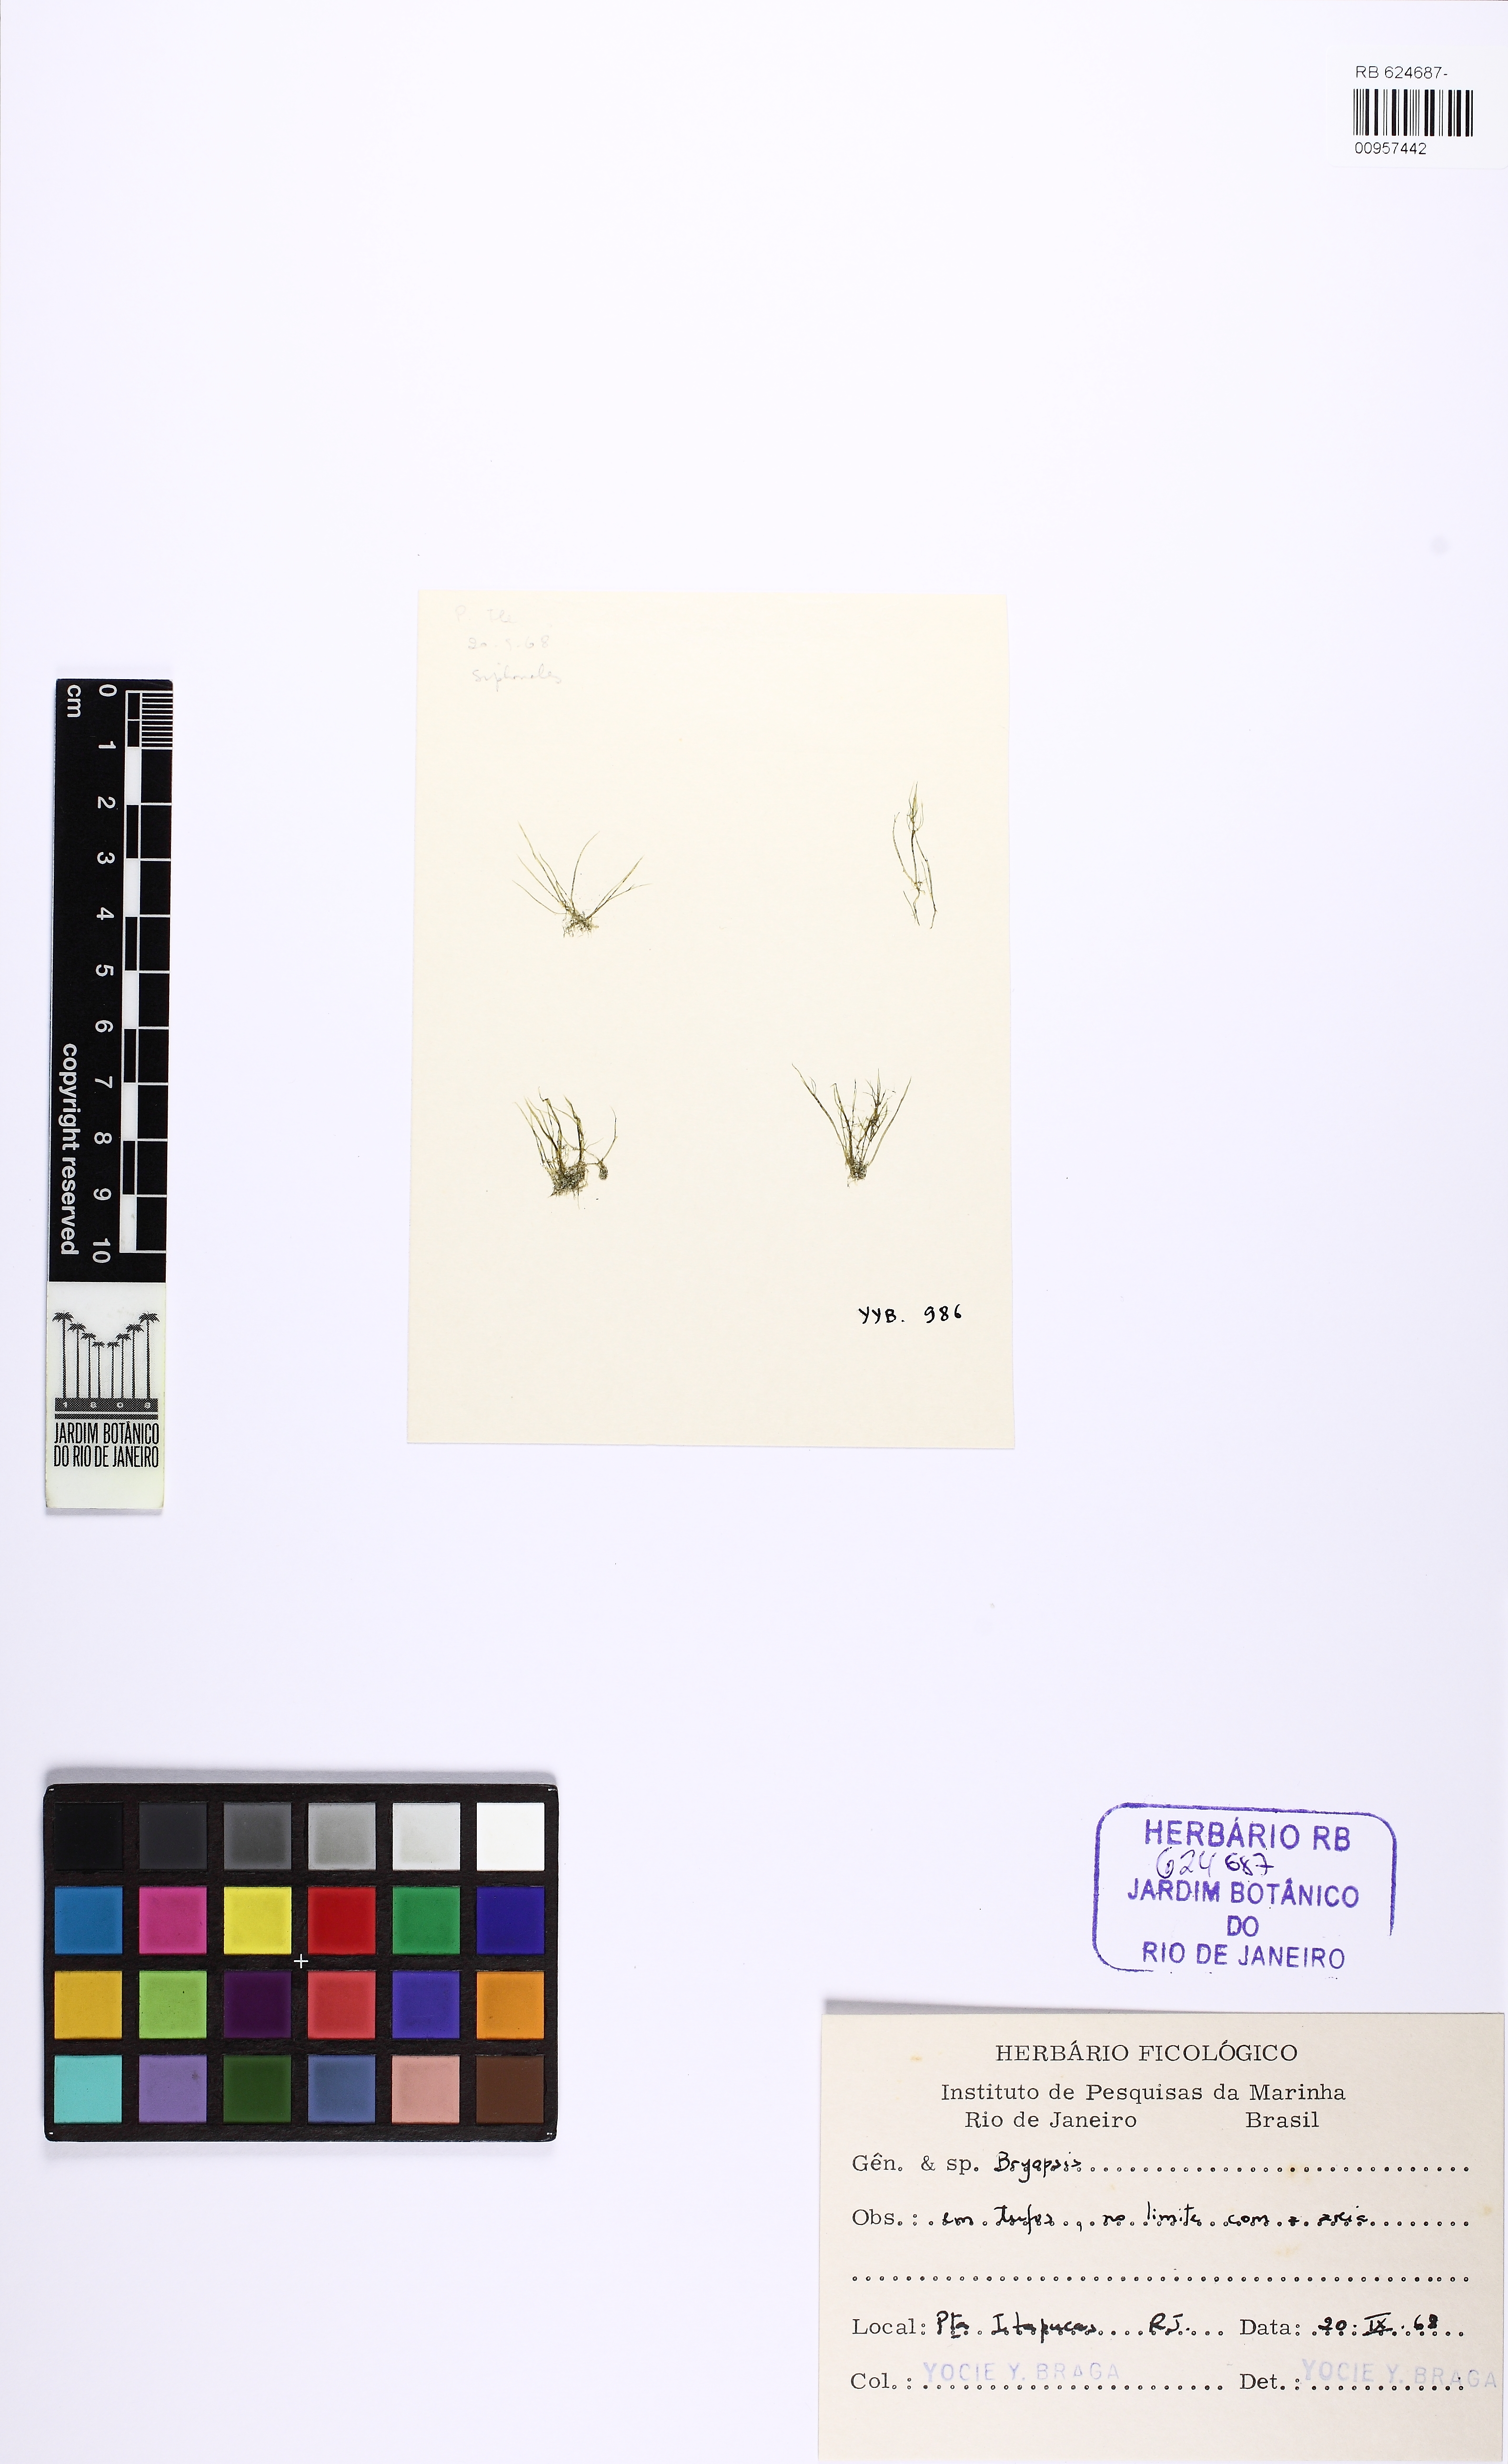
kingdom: Plantae
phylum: Chlorophyta
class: Ulvophyceae
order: Bryopsidales
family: Bryopsidaceae
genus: Bryopsis
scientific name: Bryopsis
